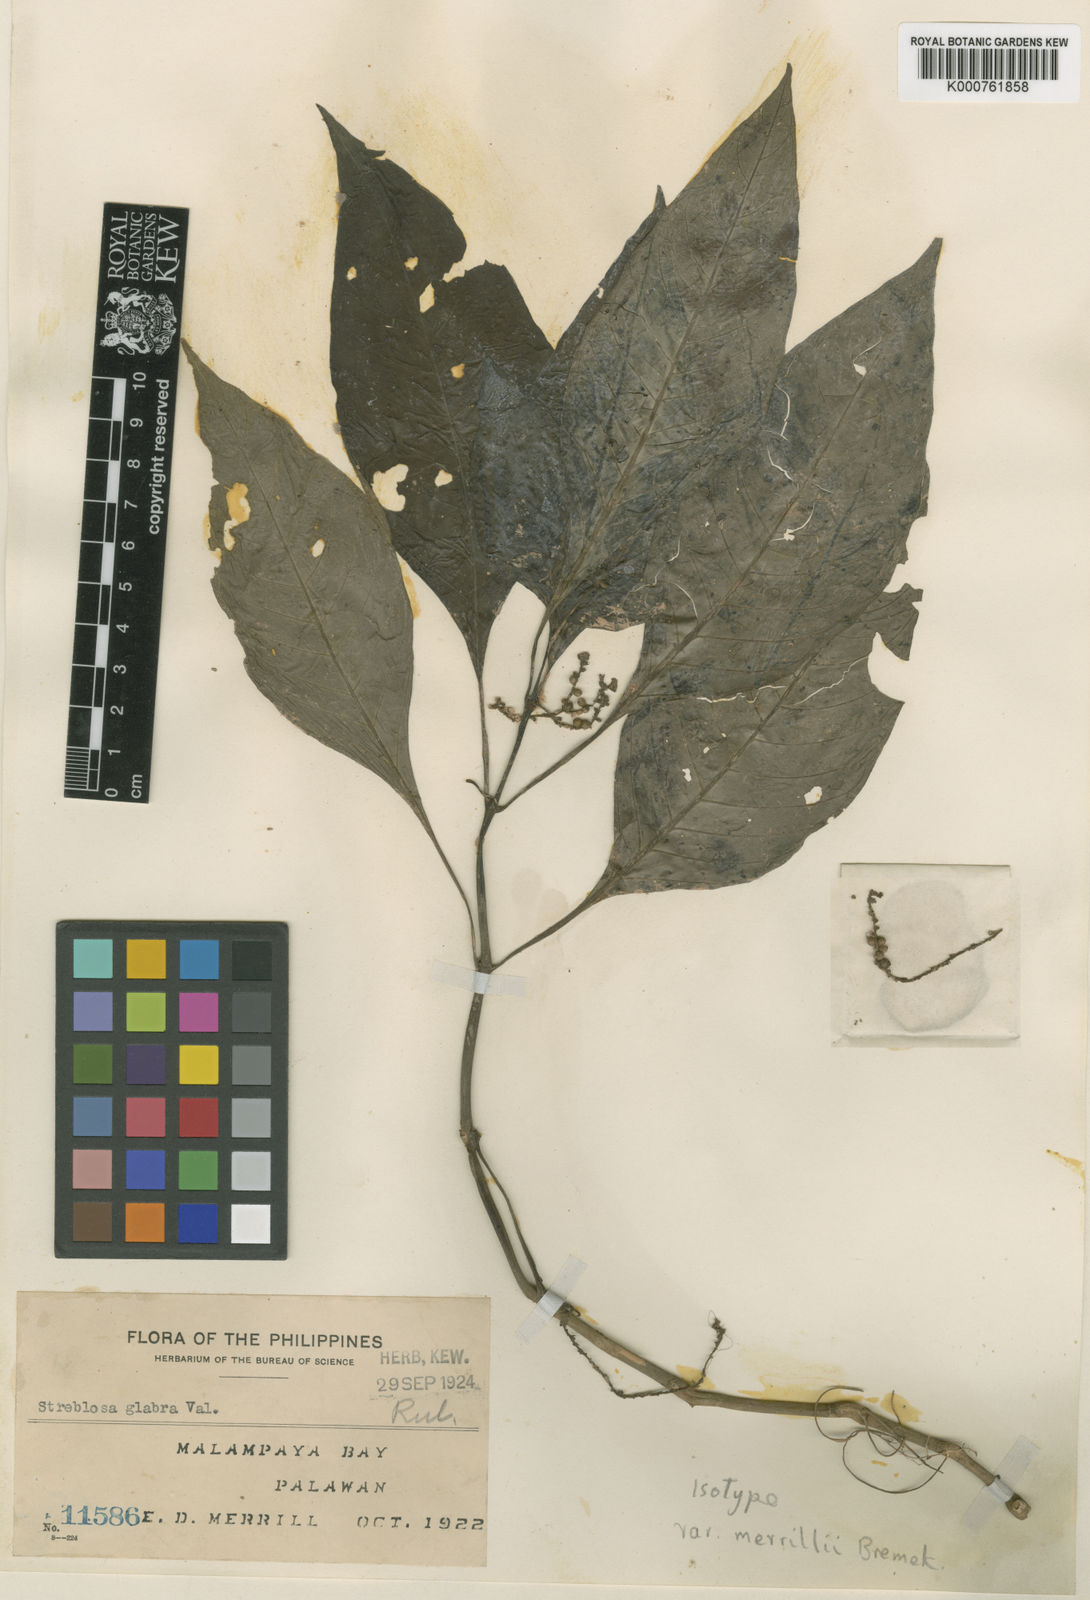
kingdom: Plantae
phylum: Tracheophyta
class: Magnoliopsida
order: Gentianales
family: Rubiaceae
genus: Streblosa
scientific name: Streblosa palawanensis
